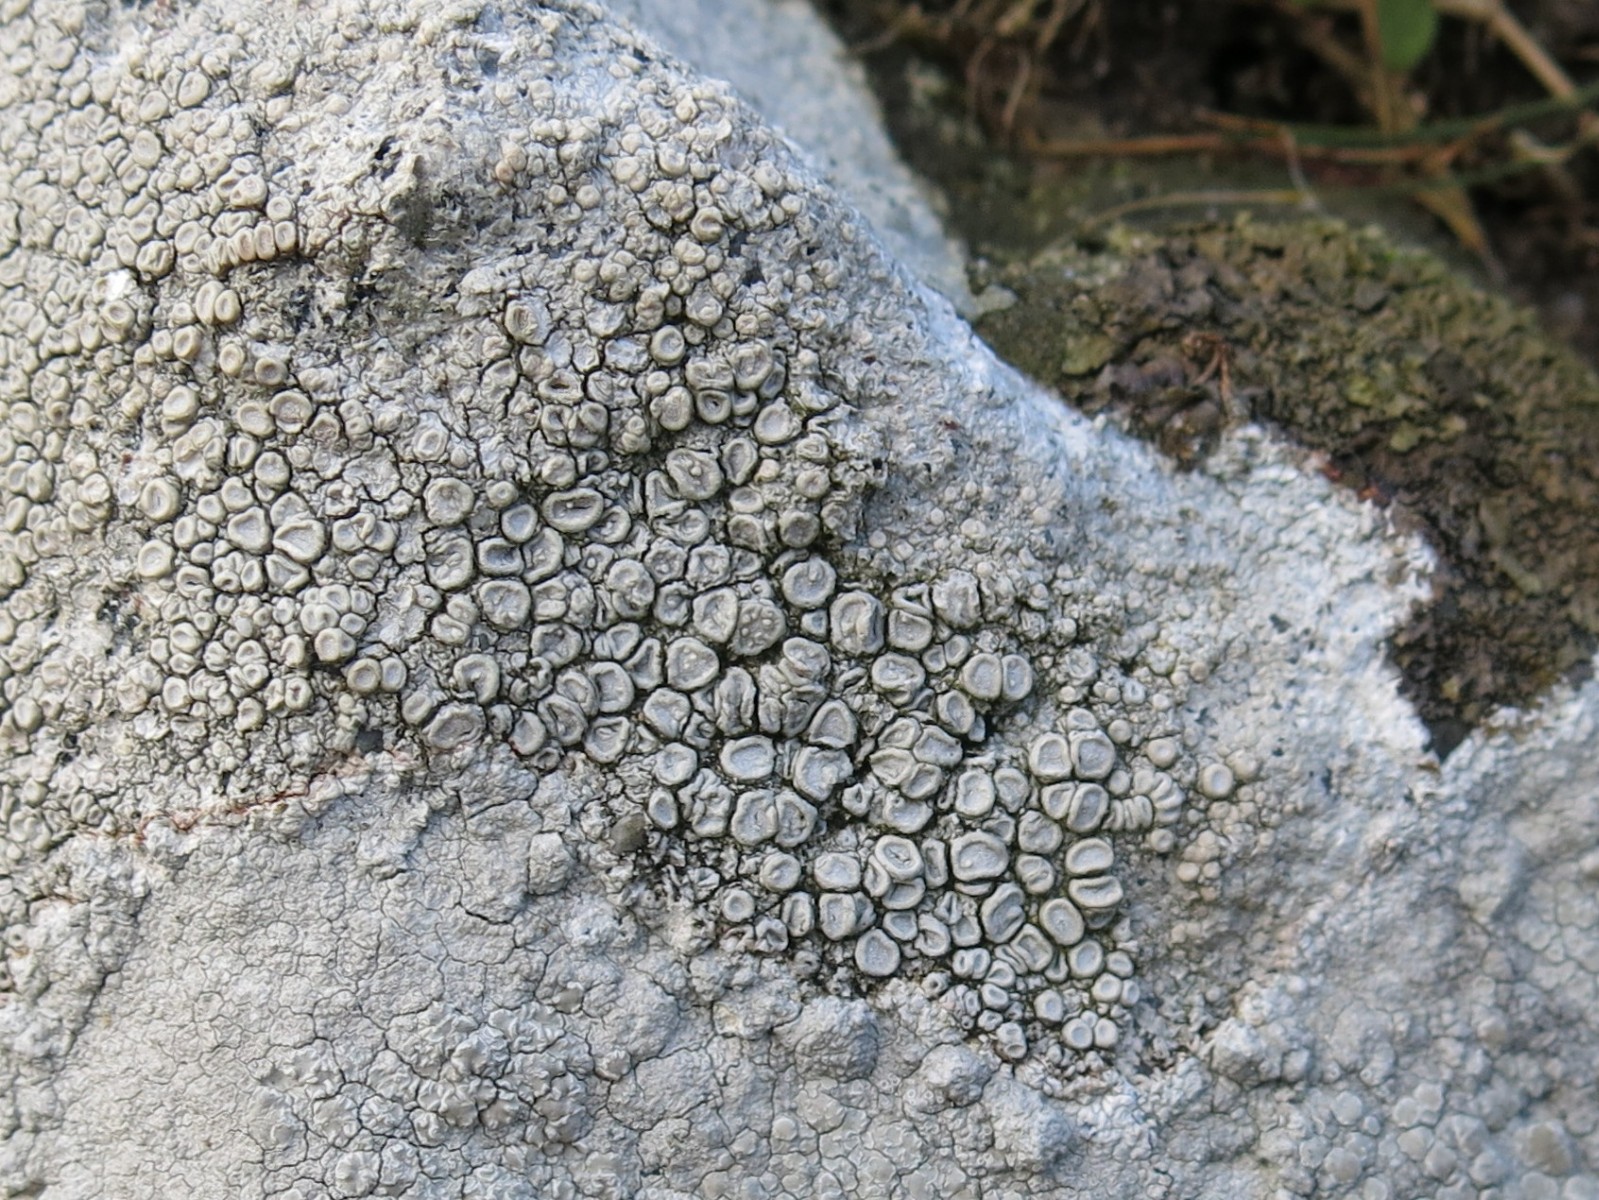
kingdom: Fungi
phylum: Ascomycota
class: Lecanoromycetes
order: Pertusariales
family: Ochrolechiaceae
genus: Ochrolechia
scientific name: Ochrolechia parella
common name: almindelig blegskivelav
